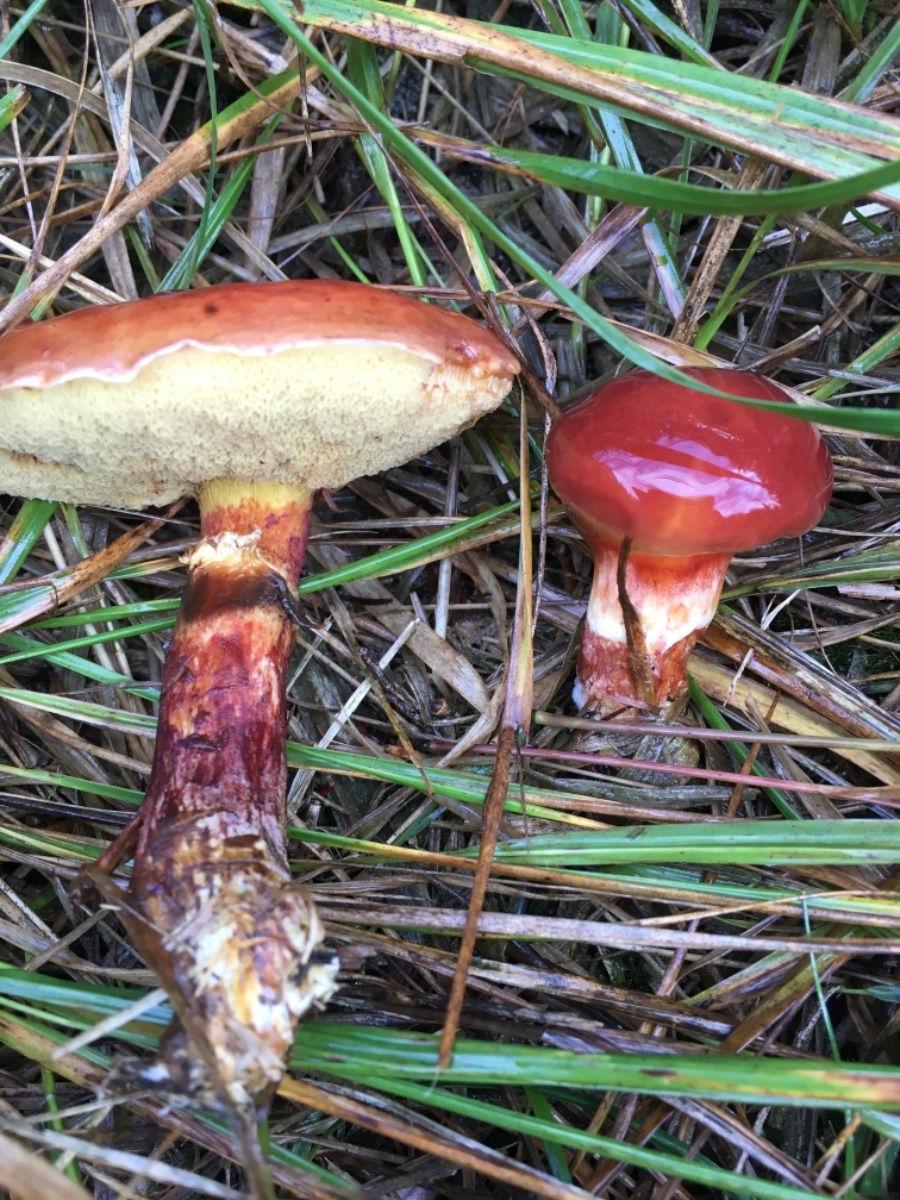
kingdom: Fungi
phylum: Basidiomycota
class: Agaricomycetes
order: Boletales
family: Suillaceae
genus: Suillus
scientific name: Suillus luteus
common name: brungul slimrørhat
